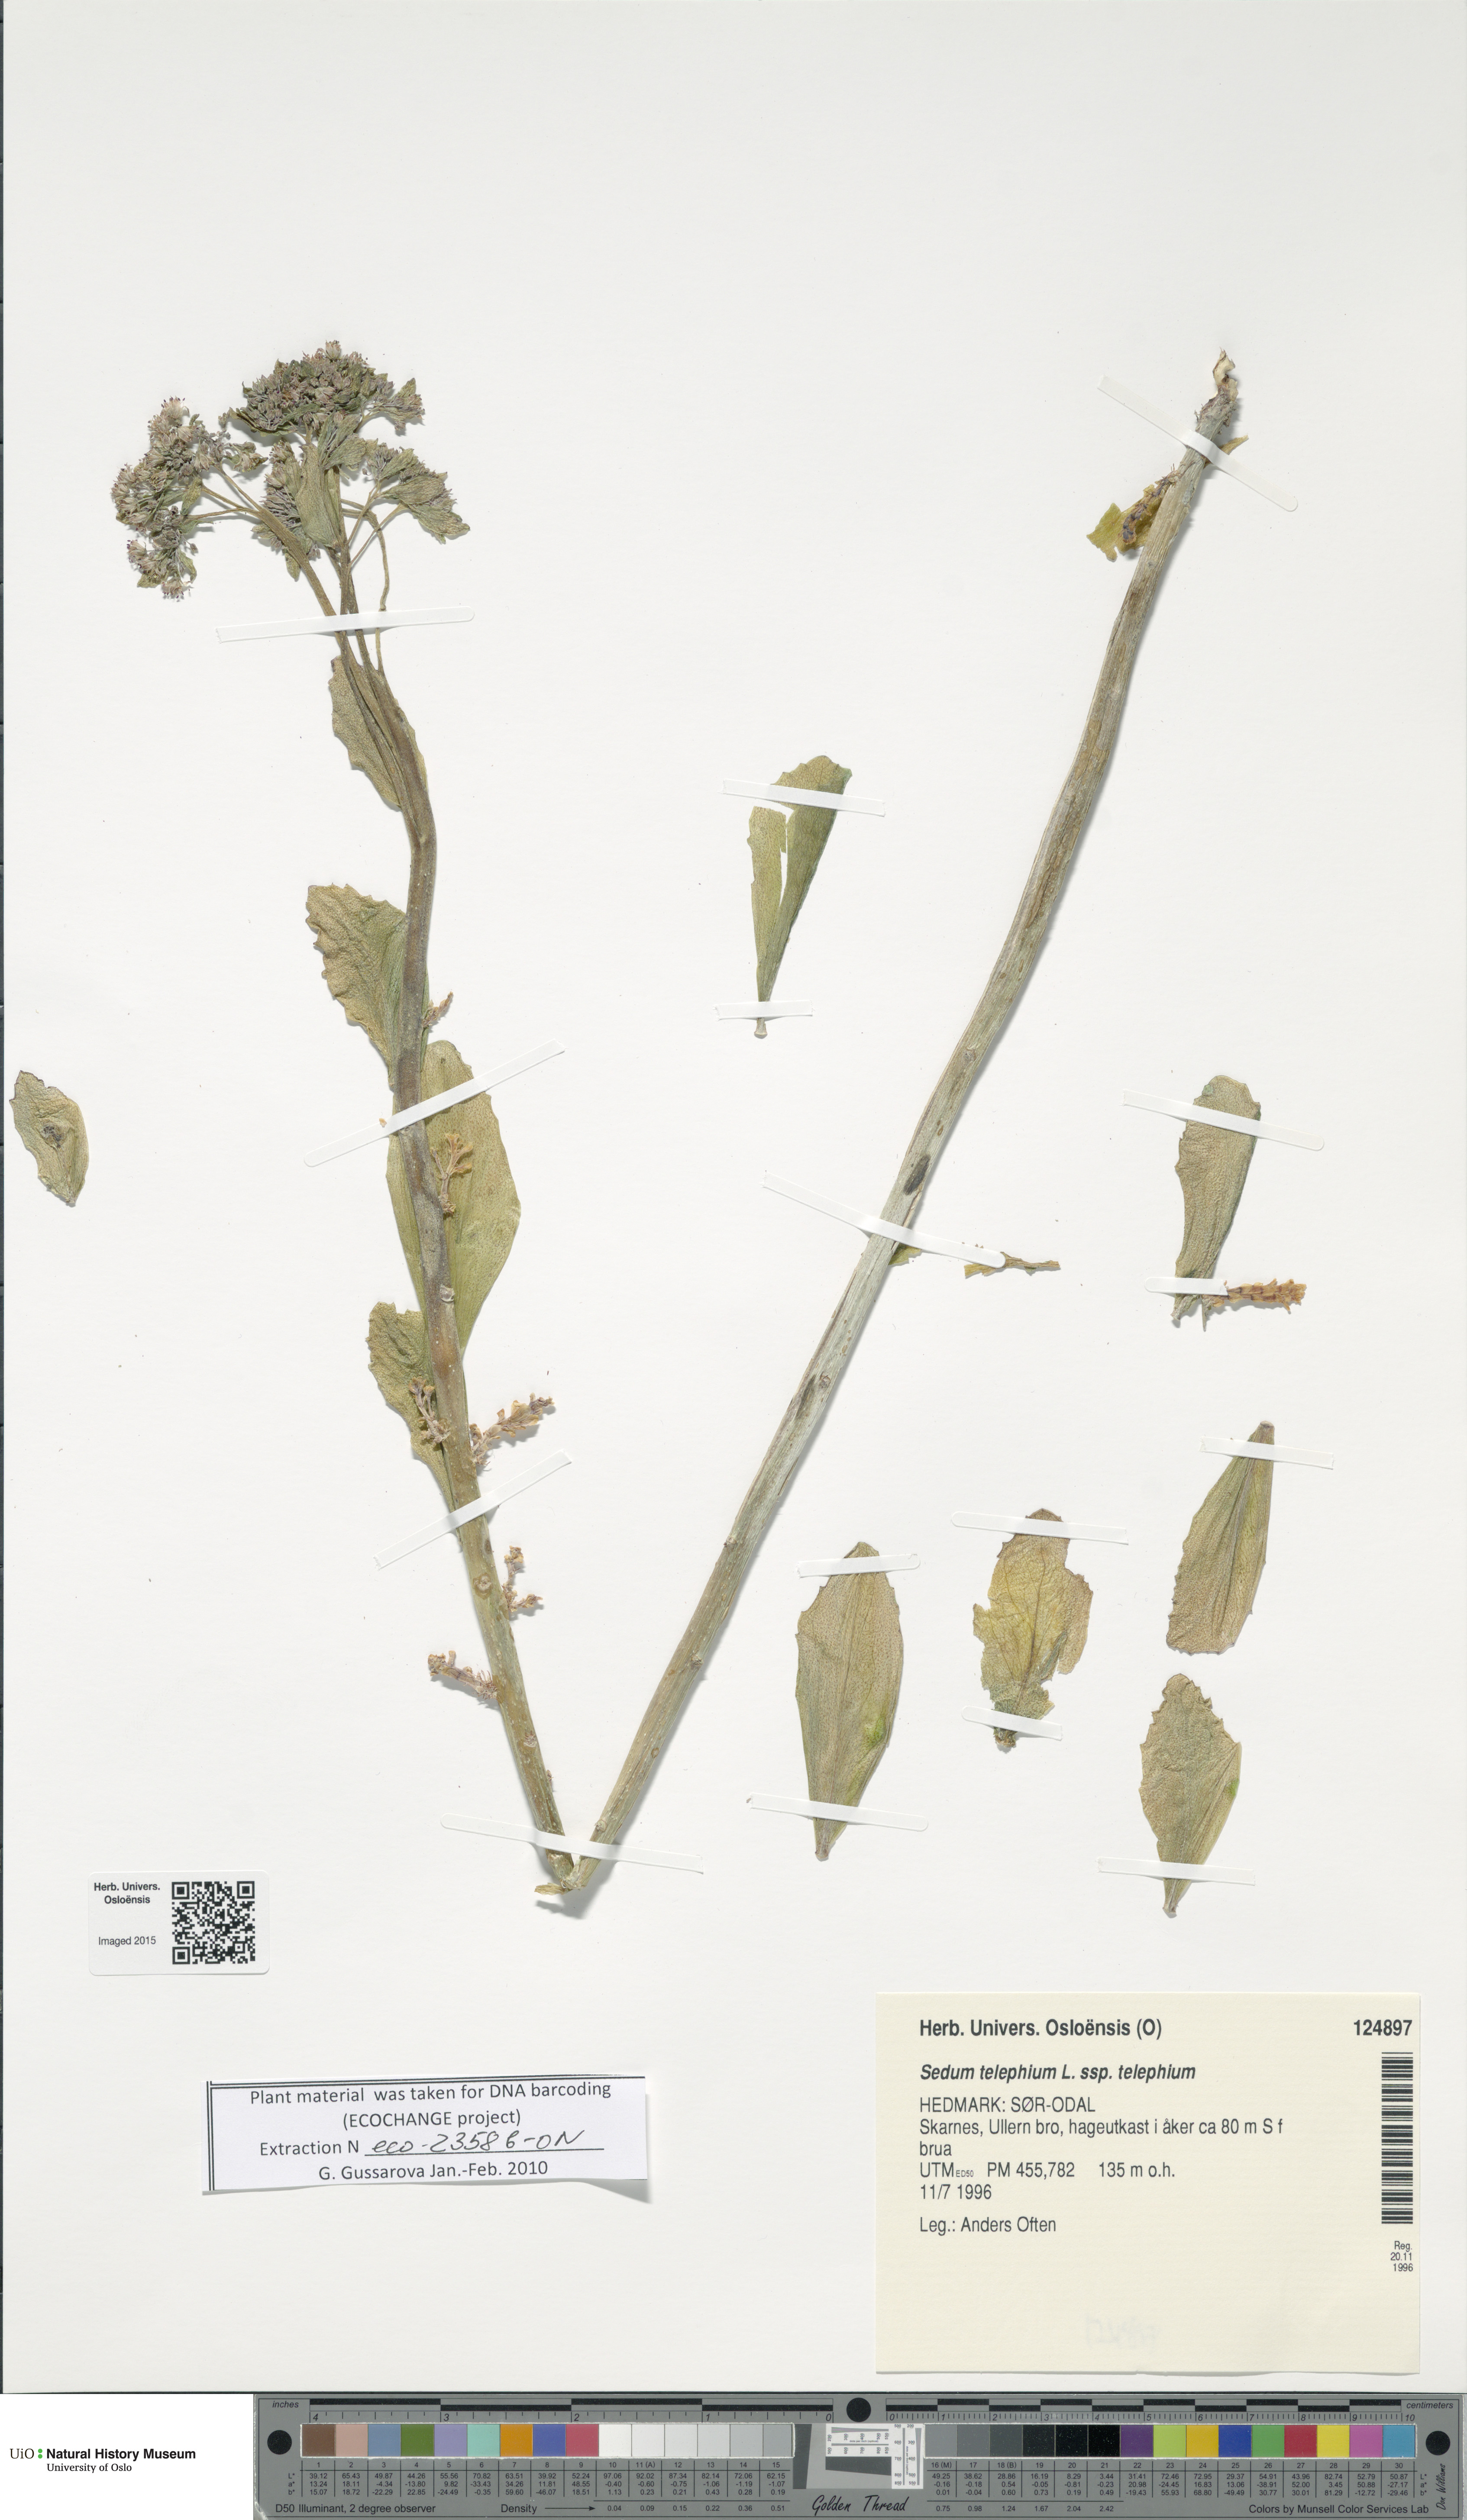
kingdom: Plantae
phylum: Tracheophyta
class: Magnoliopsida
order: Saxifragales
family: Crassulaceae
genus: Hylotelephium
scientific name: Hylotelephium telephium
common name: Live-forever
